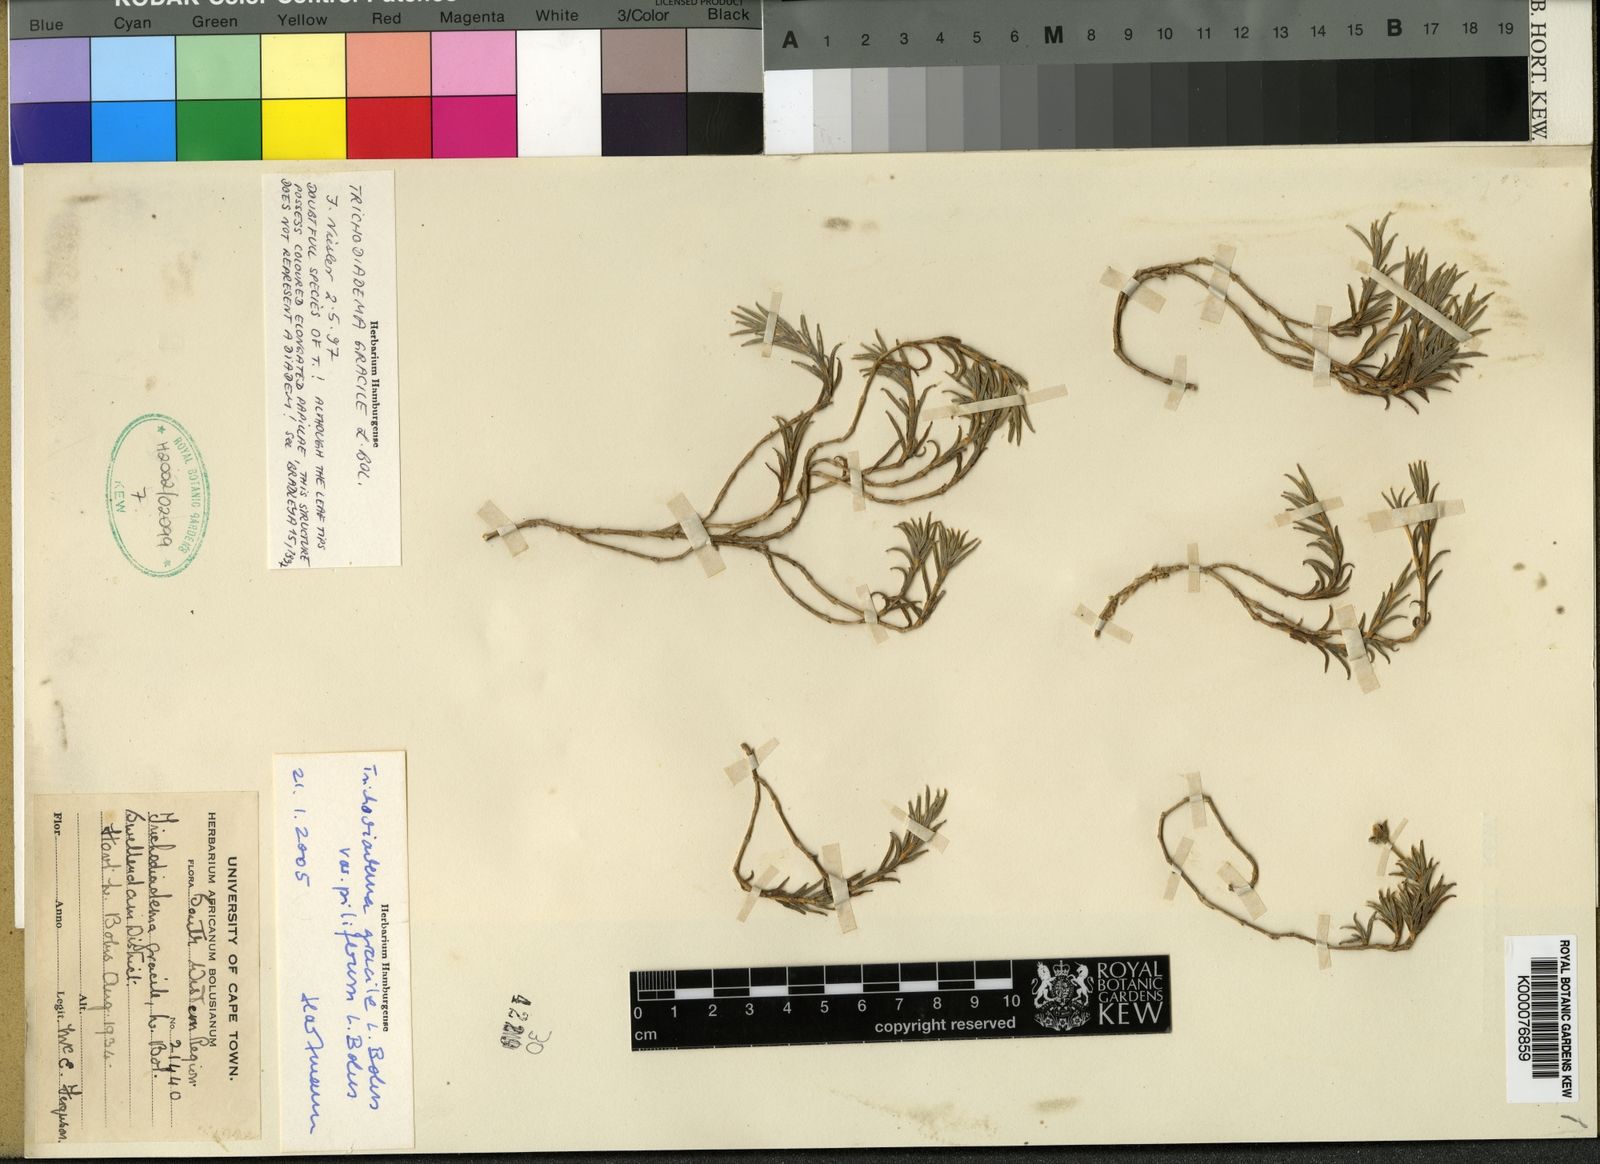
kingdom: Plantae
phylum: Tracheophyta
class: Magnoliopsida
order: Caryophyllales
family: Aizoaceae
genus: Trichodiadema
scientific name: Trichodiadema gracile
